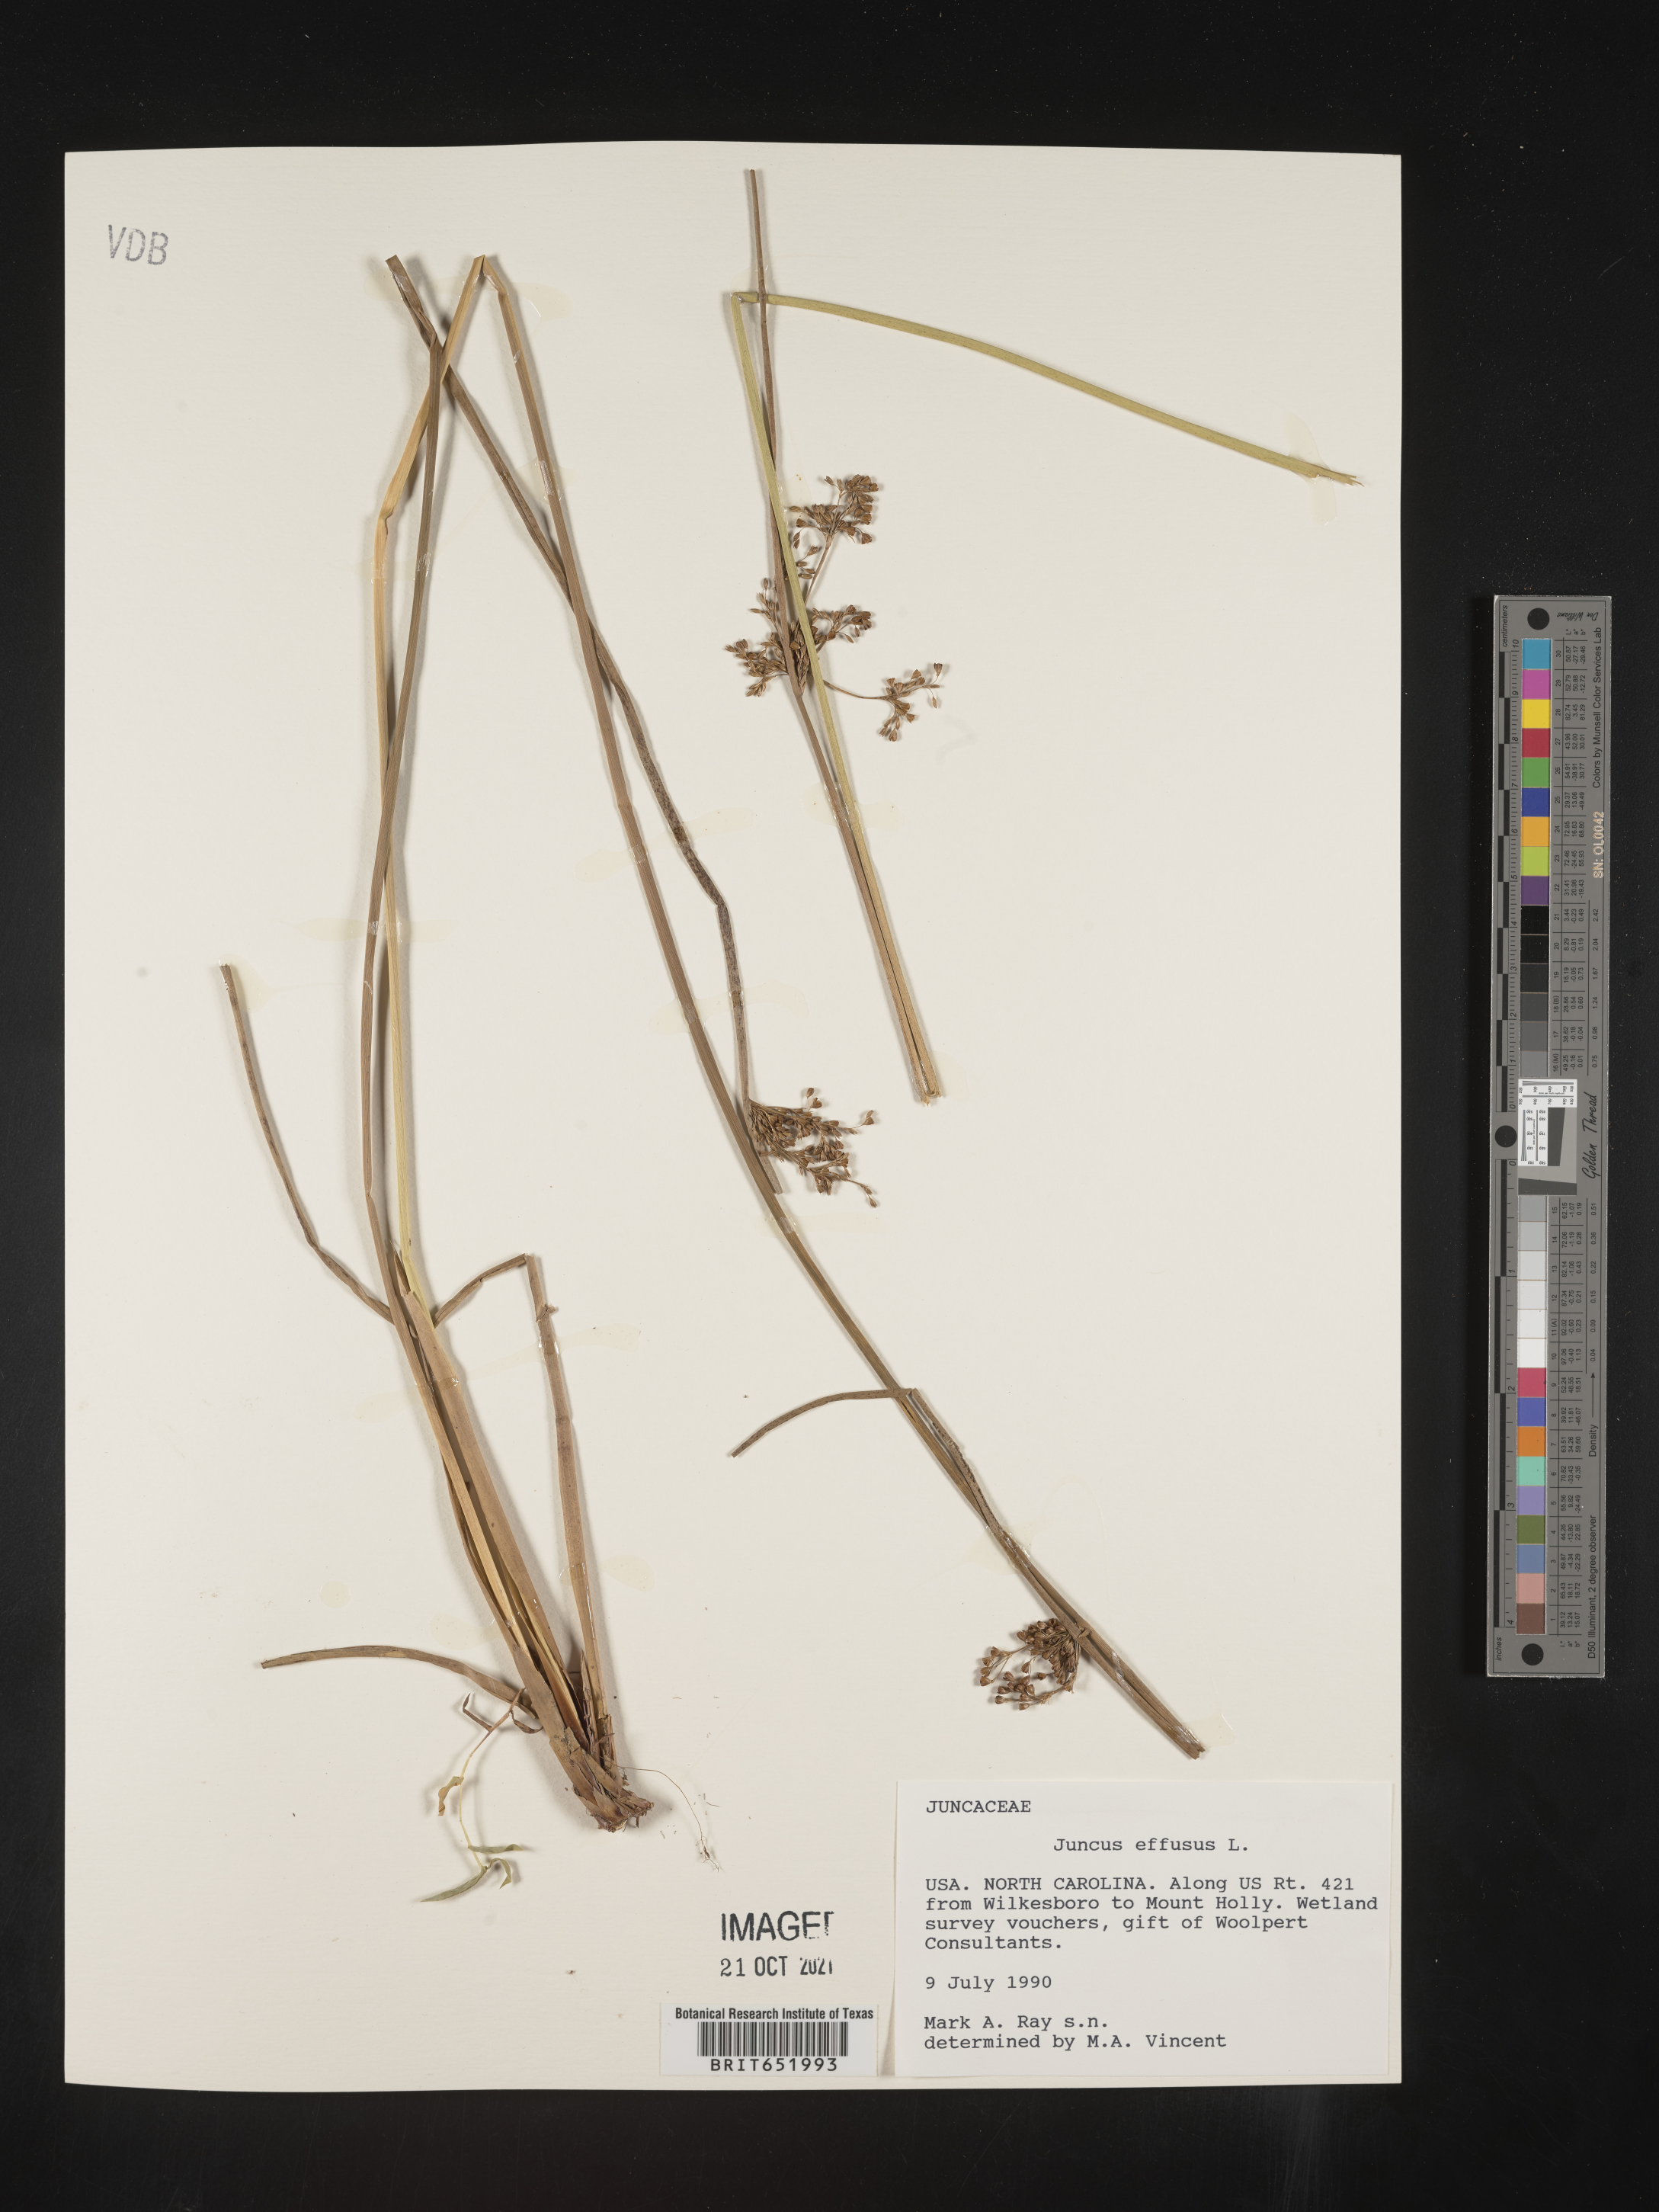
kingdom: Plantae
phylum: Tracheophyta
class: Liliopsida
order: Poales
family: Juncaceae
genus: Juncus
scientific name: Juncus effusus
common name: Soft rush
